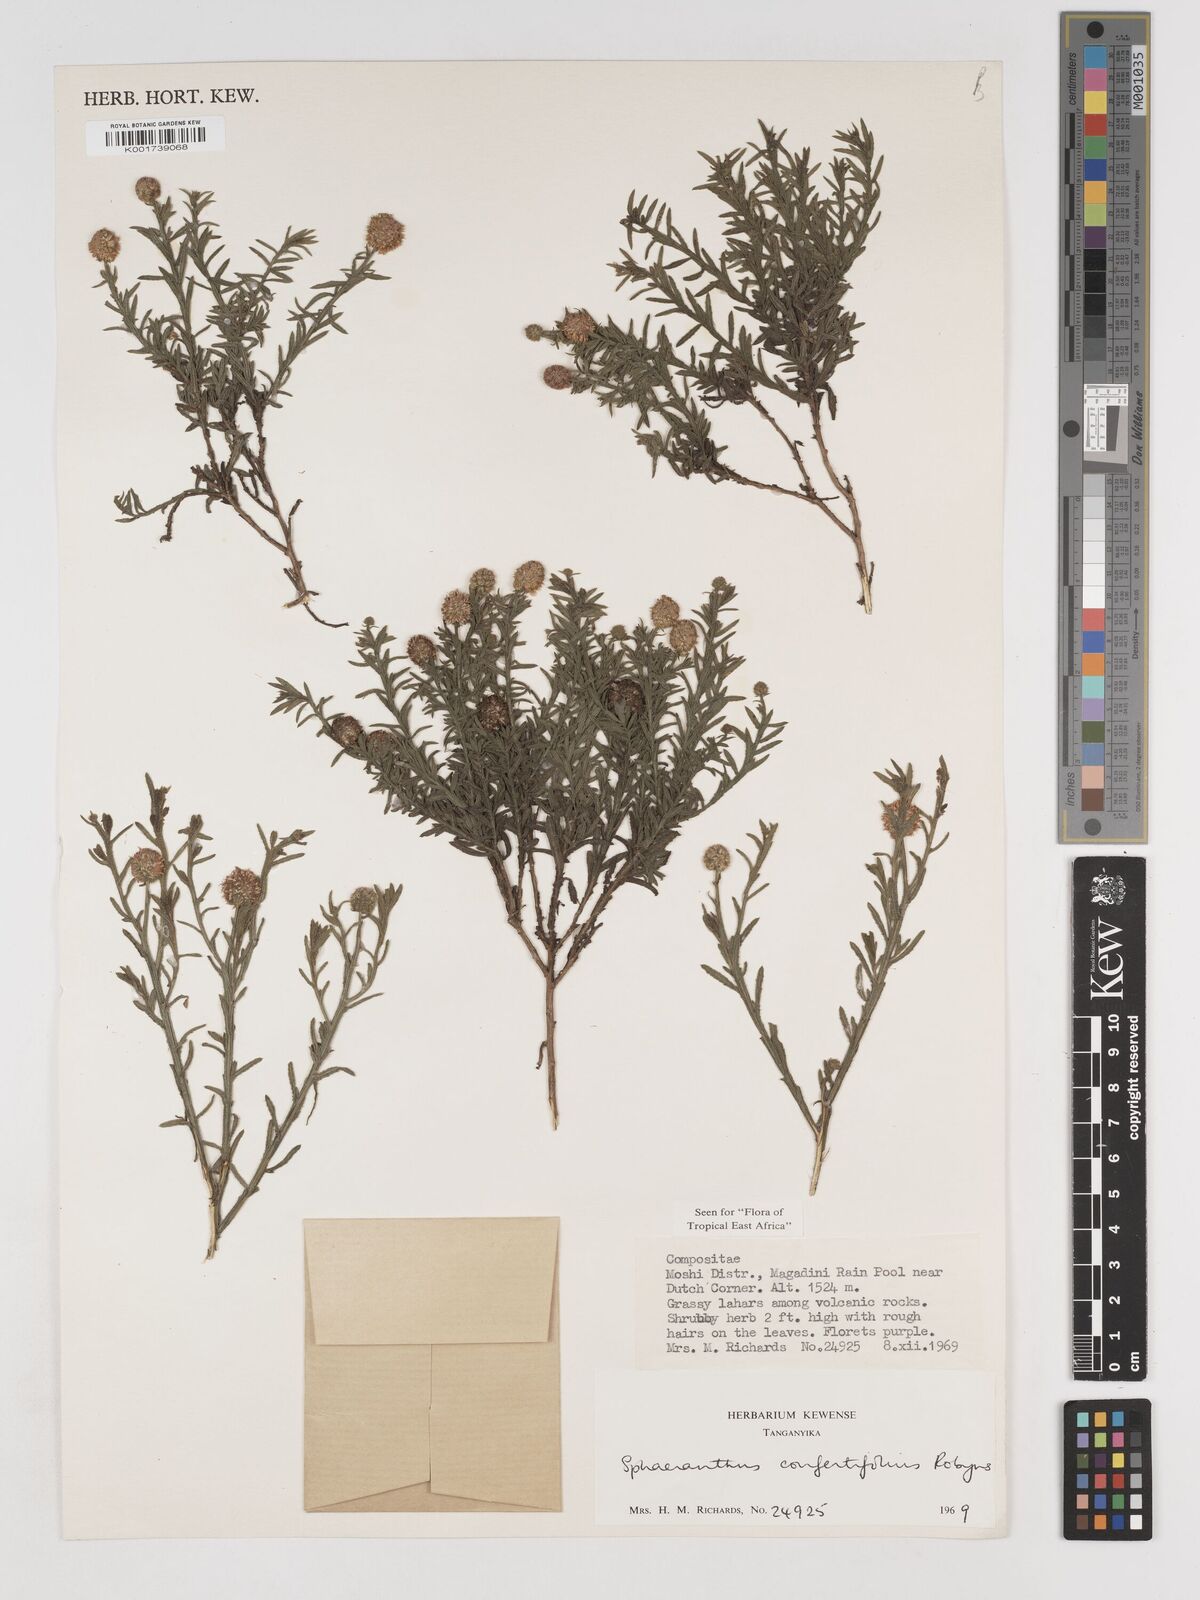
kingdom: Plantae
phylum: Tracheophyta
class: Magnoliopsida
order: Asterales
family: Asteraceae
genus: Sphaeranthus
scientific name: Sphaeranthus confertifolius
